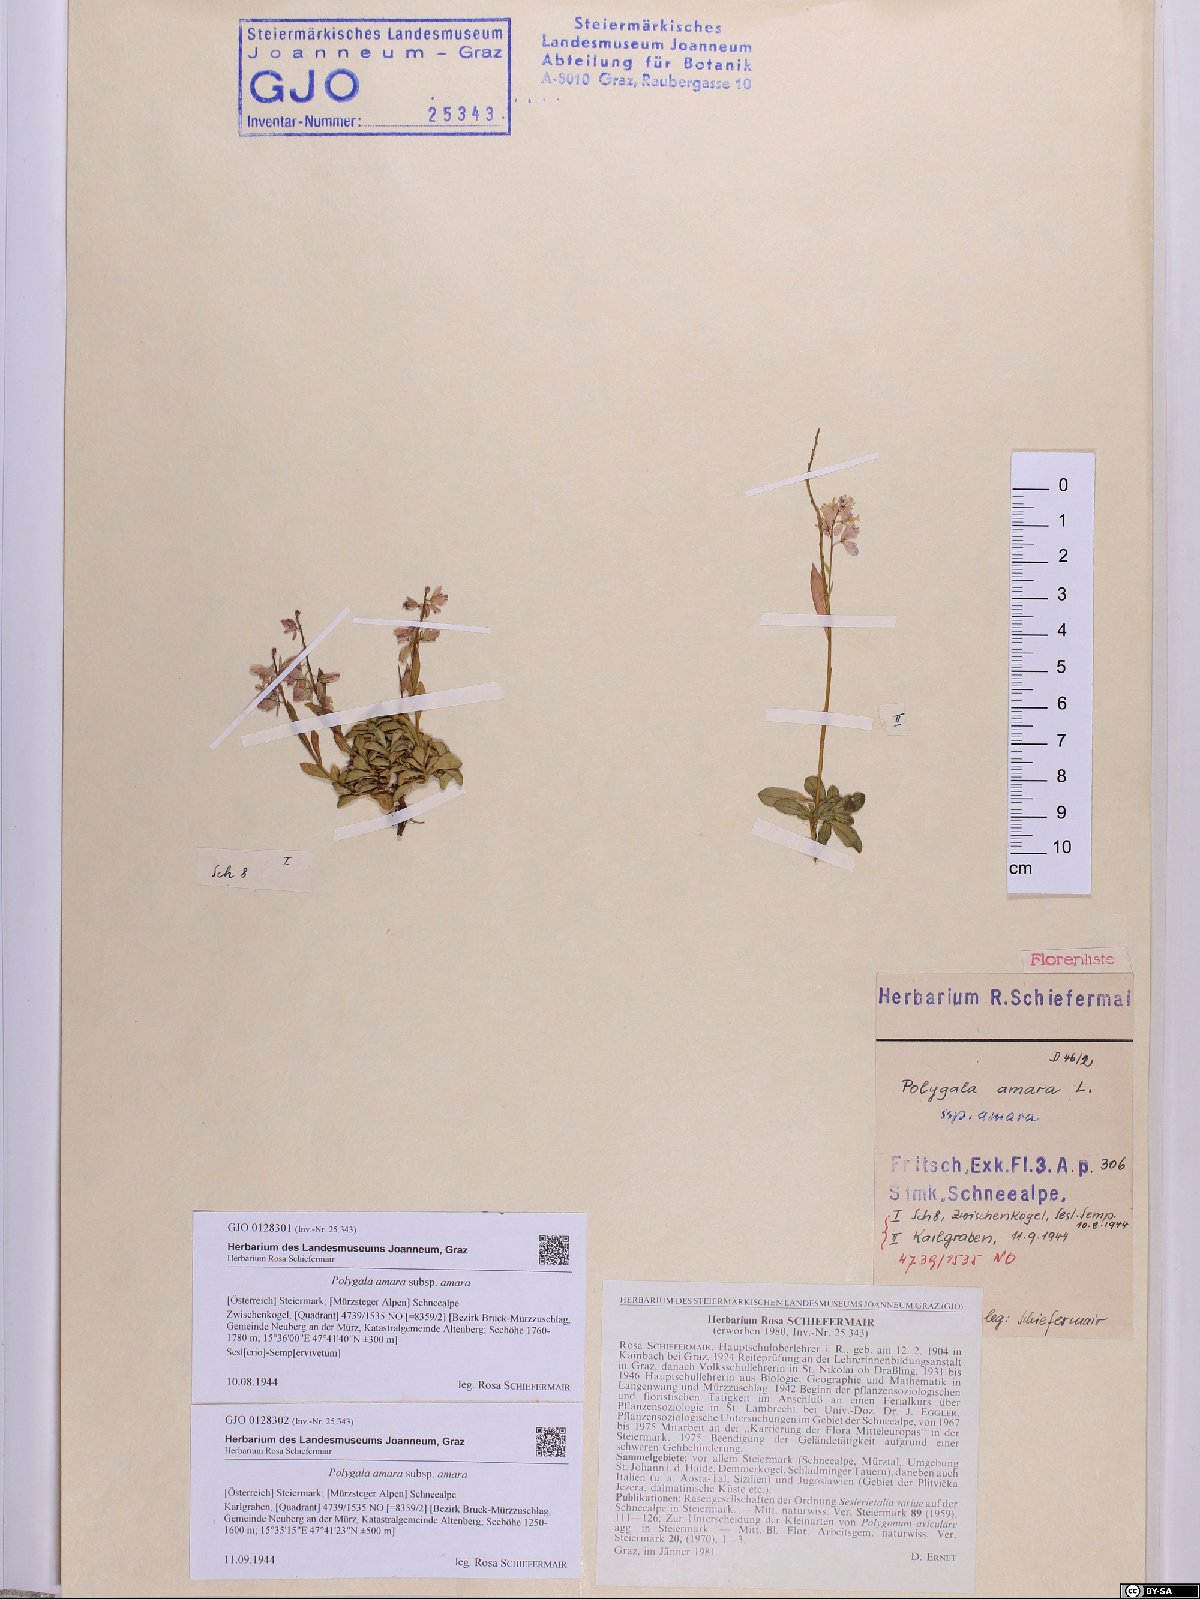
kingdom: Plantae
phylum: Tracheophyta
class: Magnoliopsida
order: Fabales
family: Polygalaceae
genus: Polygala
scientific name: Polygala amara
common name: Milkwort
